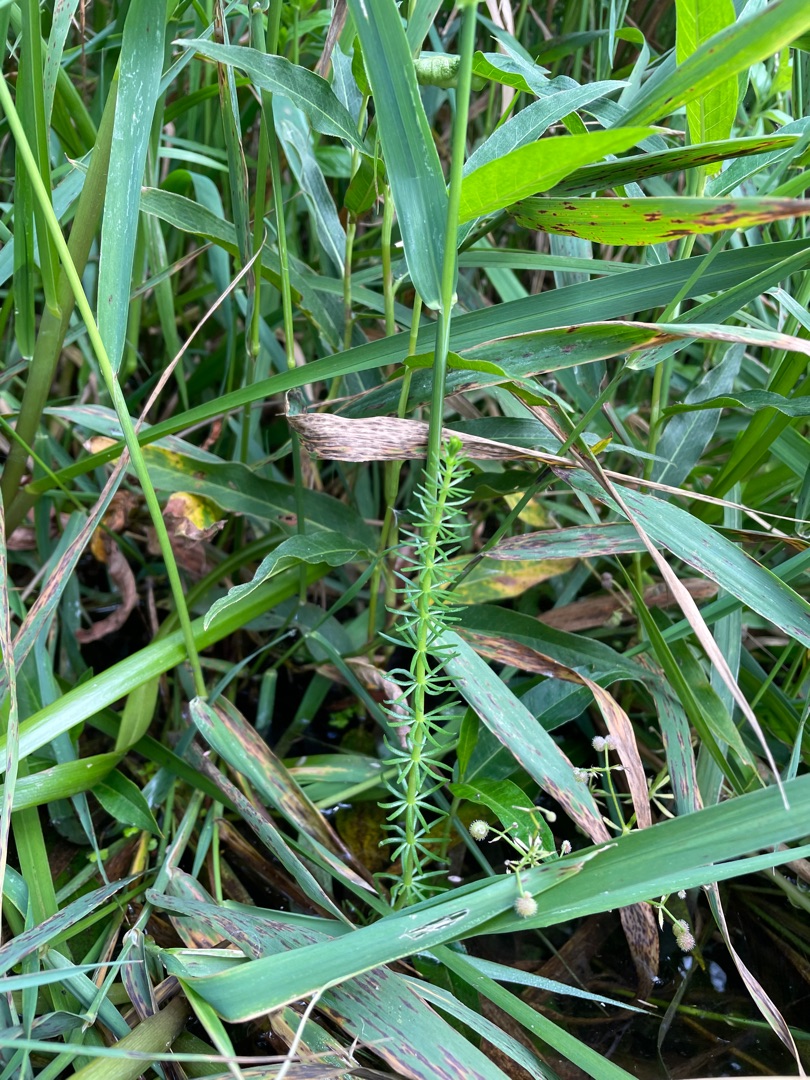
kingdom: Plantae
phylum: Tracheophyta
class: Magnoliopsida
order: Lamiales
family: Plantaginaceae
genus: Hippuris
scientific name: Hippuris vulgaris
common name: Vandspir
